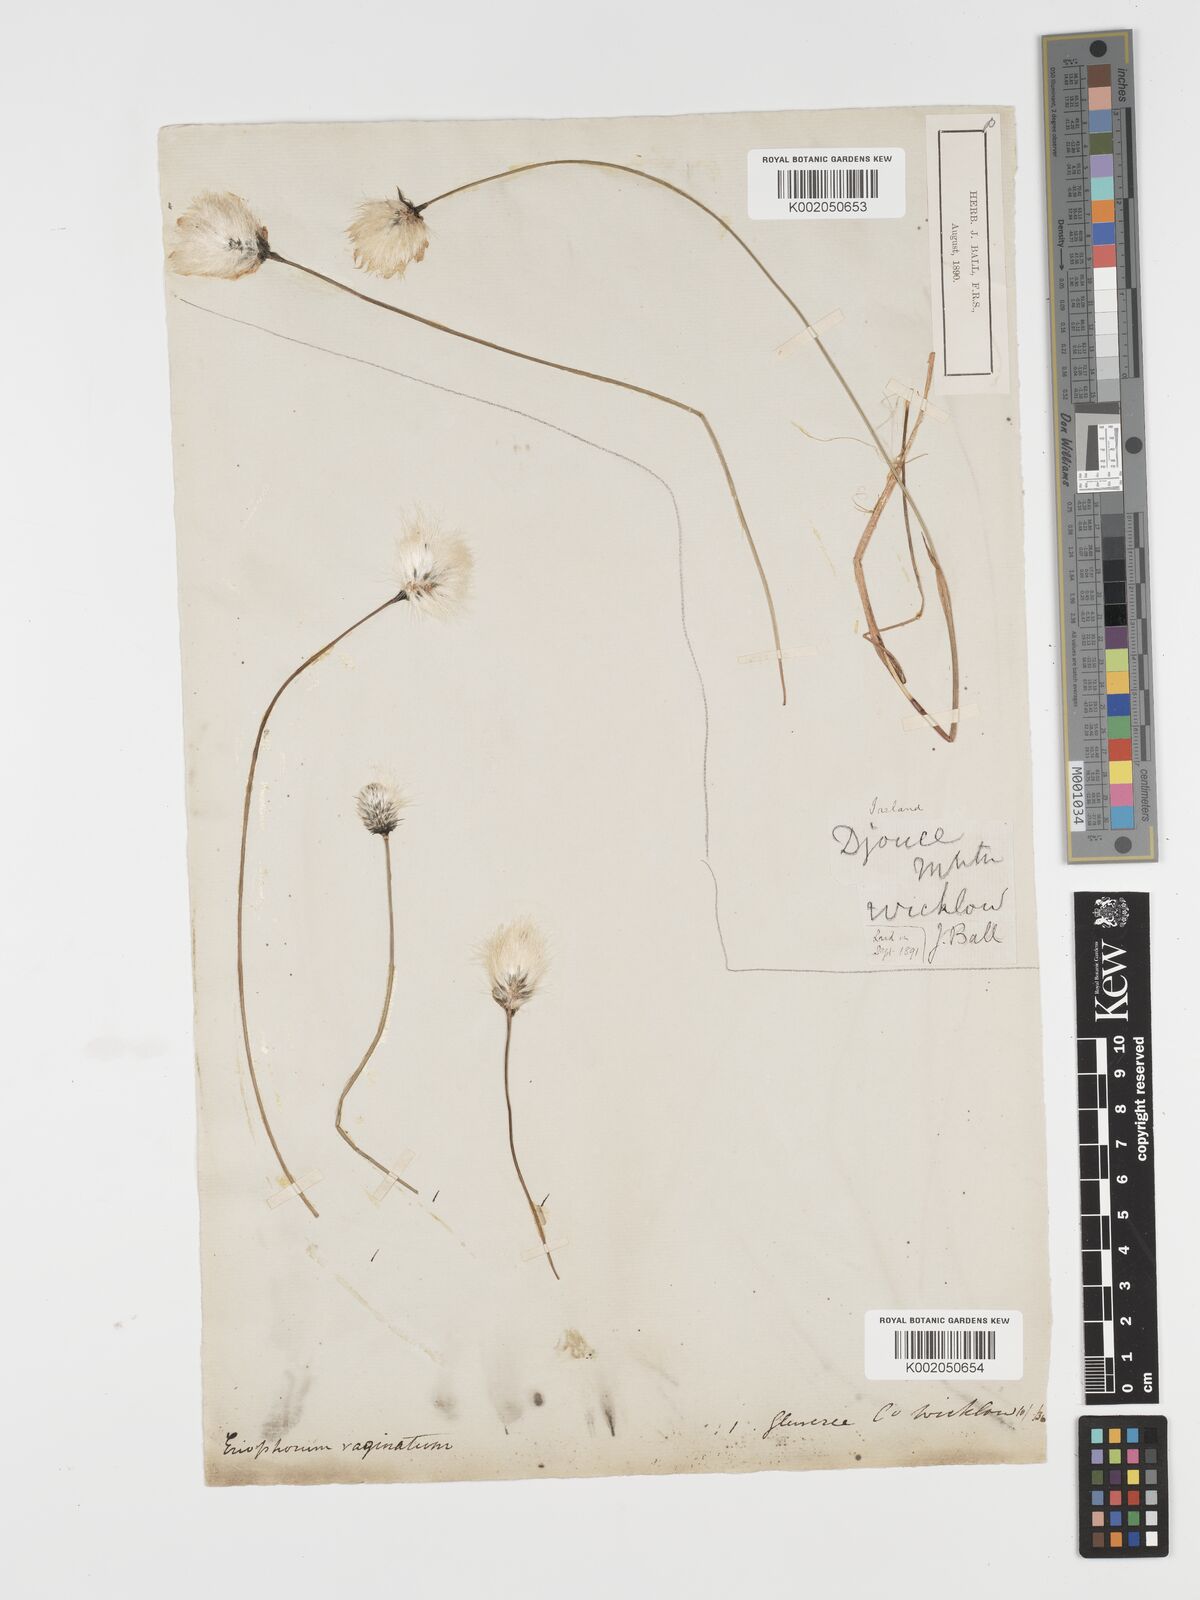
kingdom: Plantae
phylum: Tracheophyta
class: Liliopsida
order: Poales
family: Cyperaceae
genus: Eriophorum
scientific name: Eriophorum vaginatum
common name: Hare's-tail cottongrass
